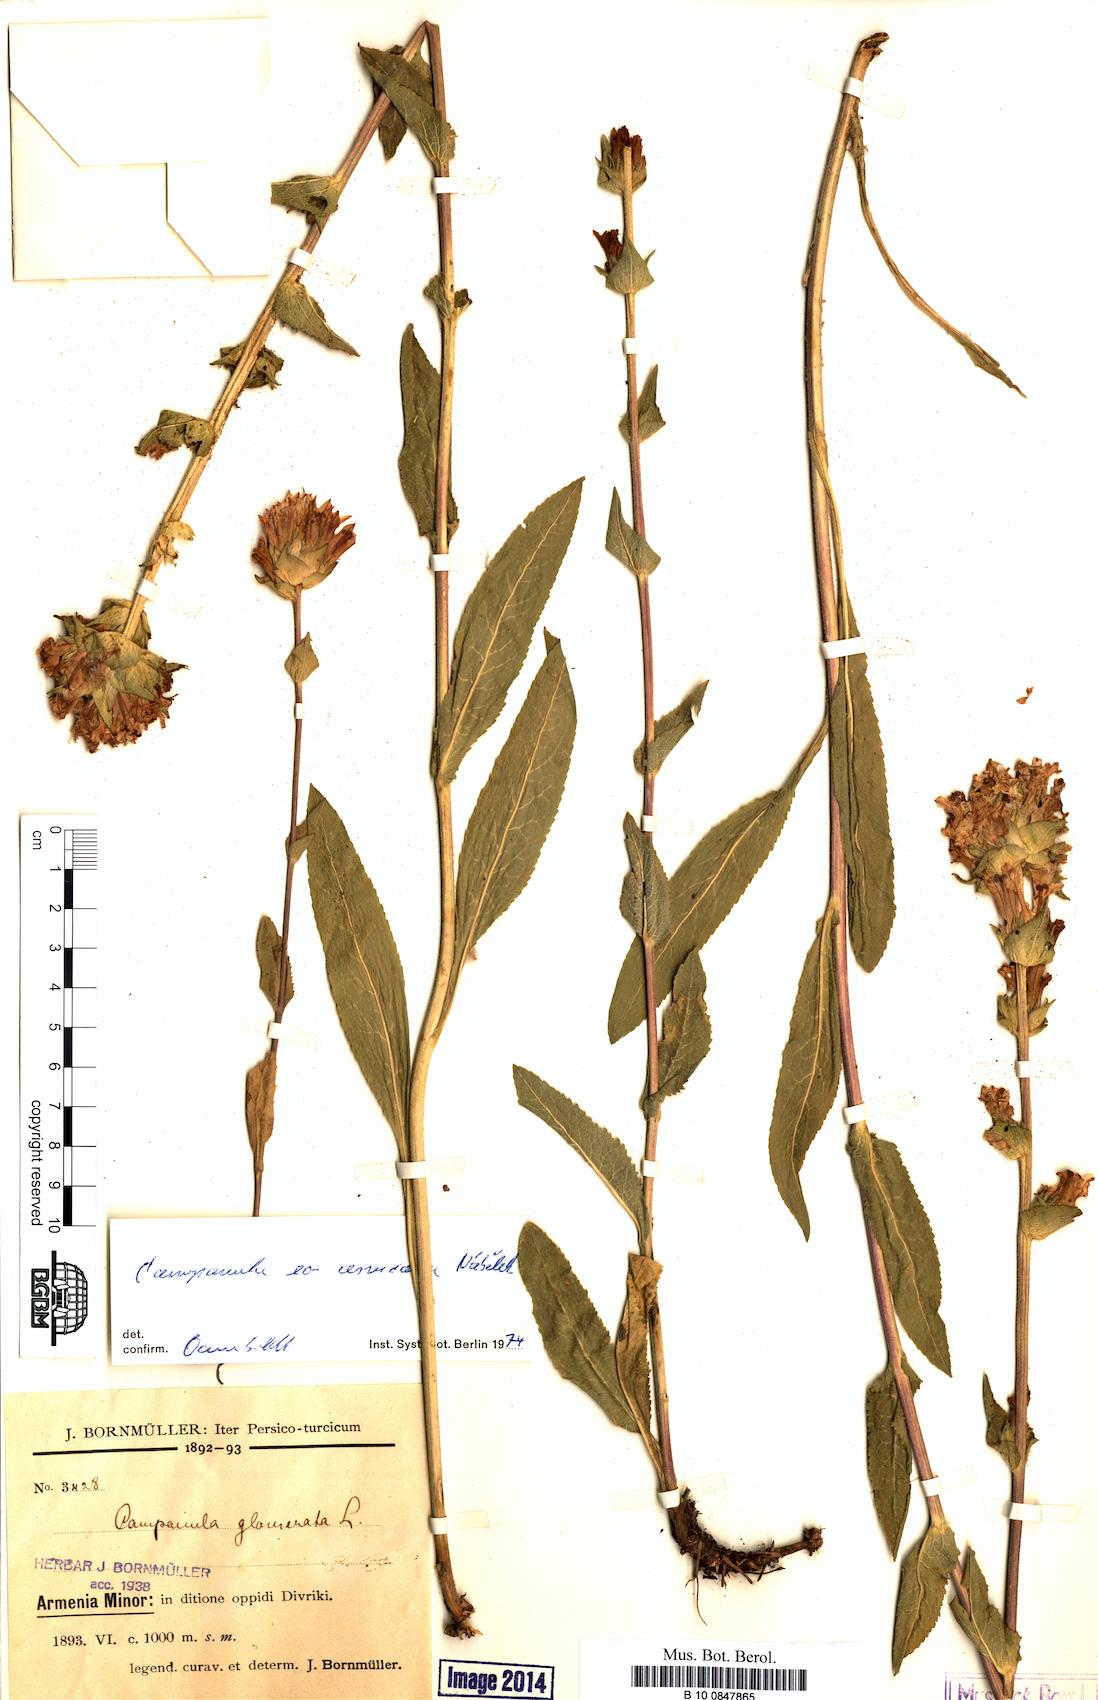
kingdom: Plantae
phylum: Tracheophyta
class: Magnoliopsida
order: Asterales
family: Campanulaceae
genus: Campanula
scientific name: Campanula glomerata
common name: Clustered bellflower
